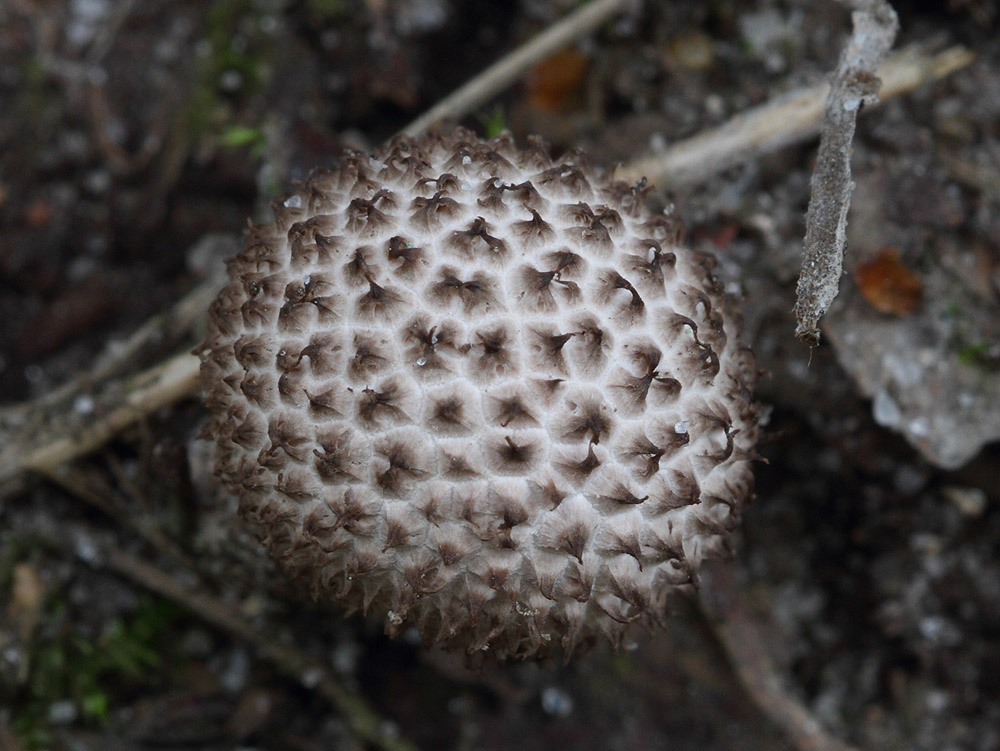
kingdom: Fungi
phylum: Basidiomycota
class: Agaricomycetes
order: Agaricales
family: Lycoperdaceae
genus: Lycoperdon
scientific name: Lycoperdon nigrescens
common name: sortagtig støvbold
